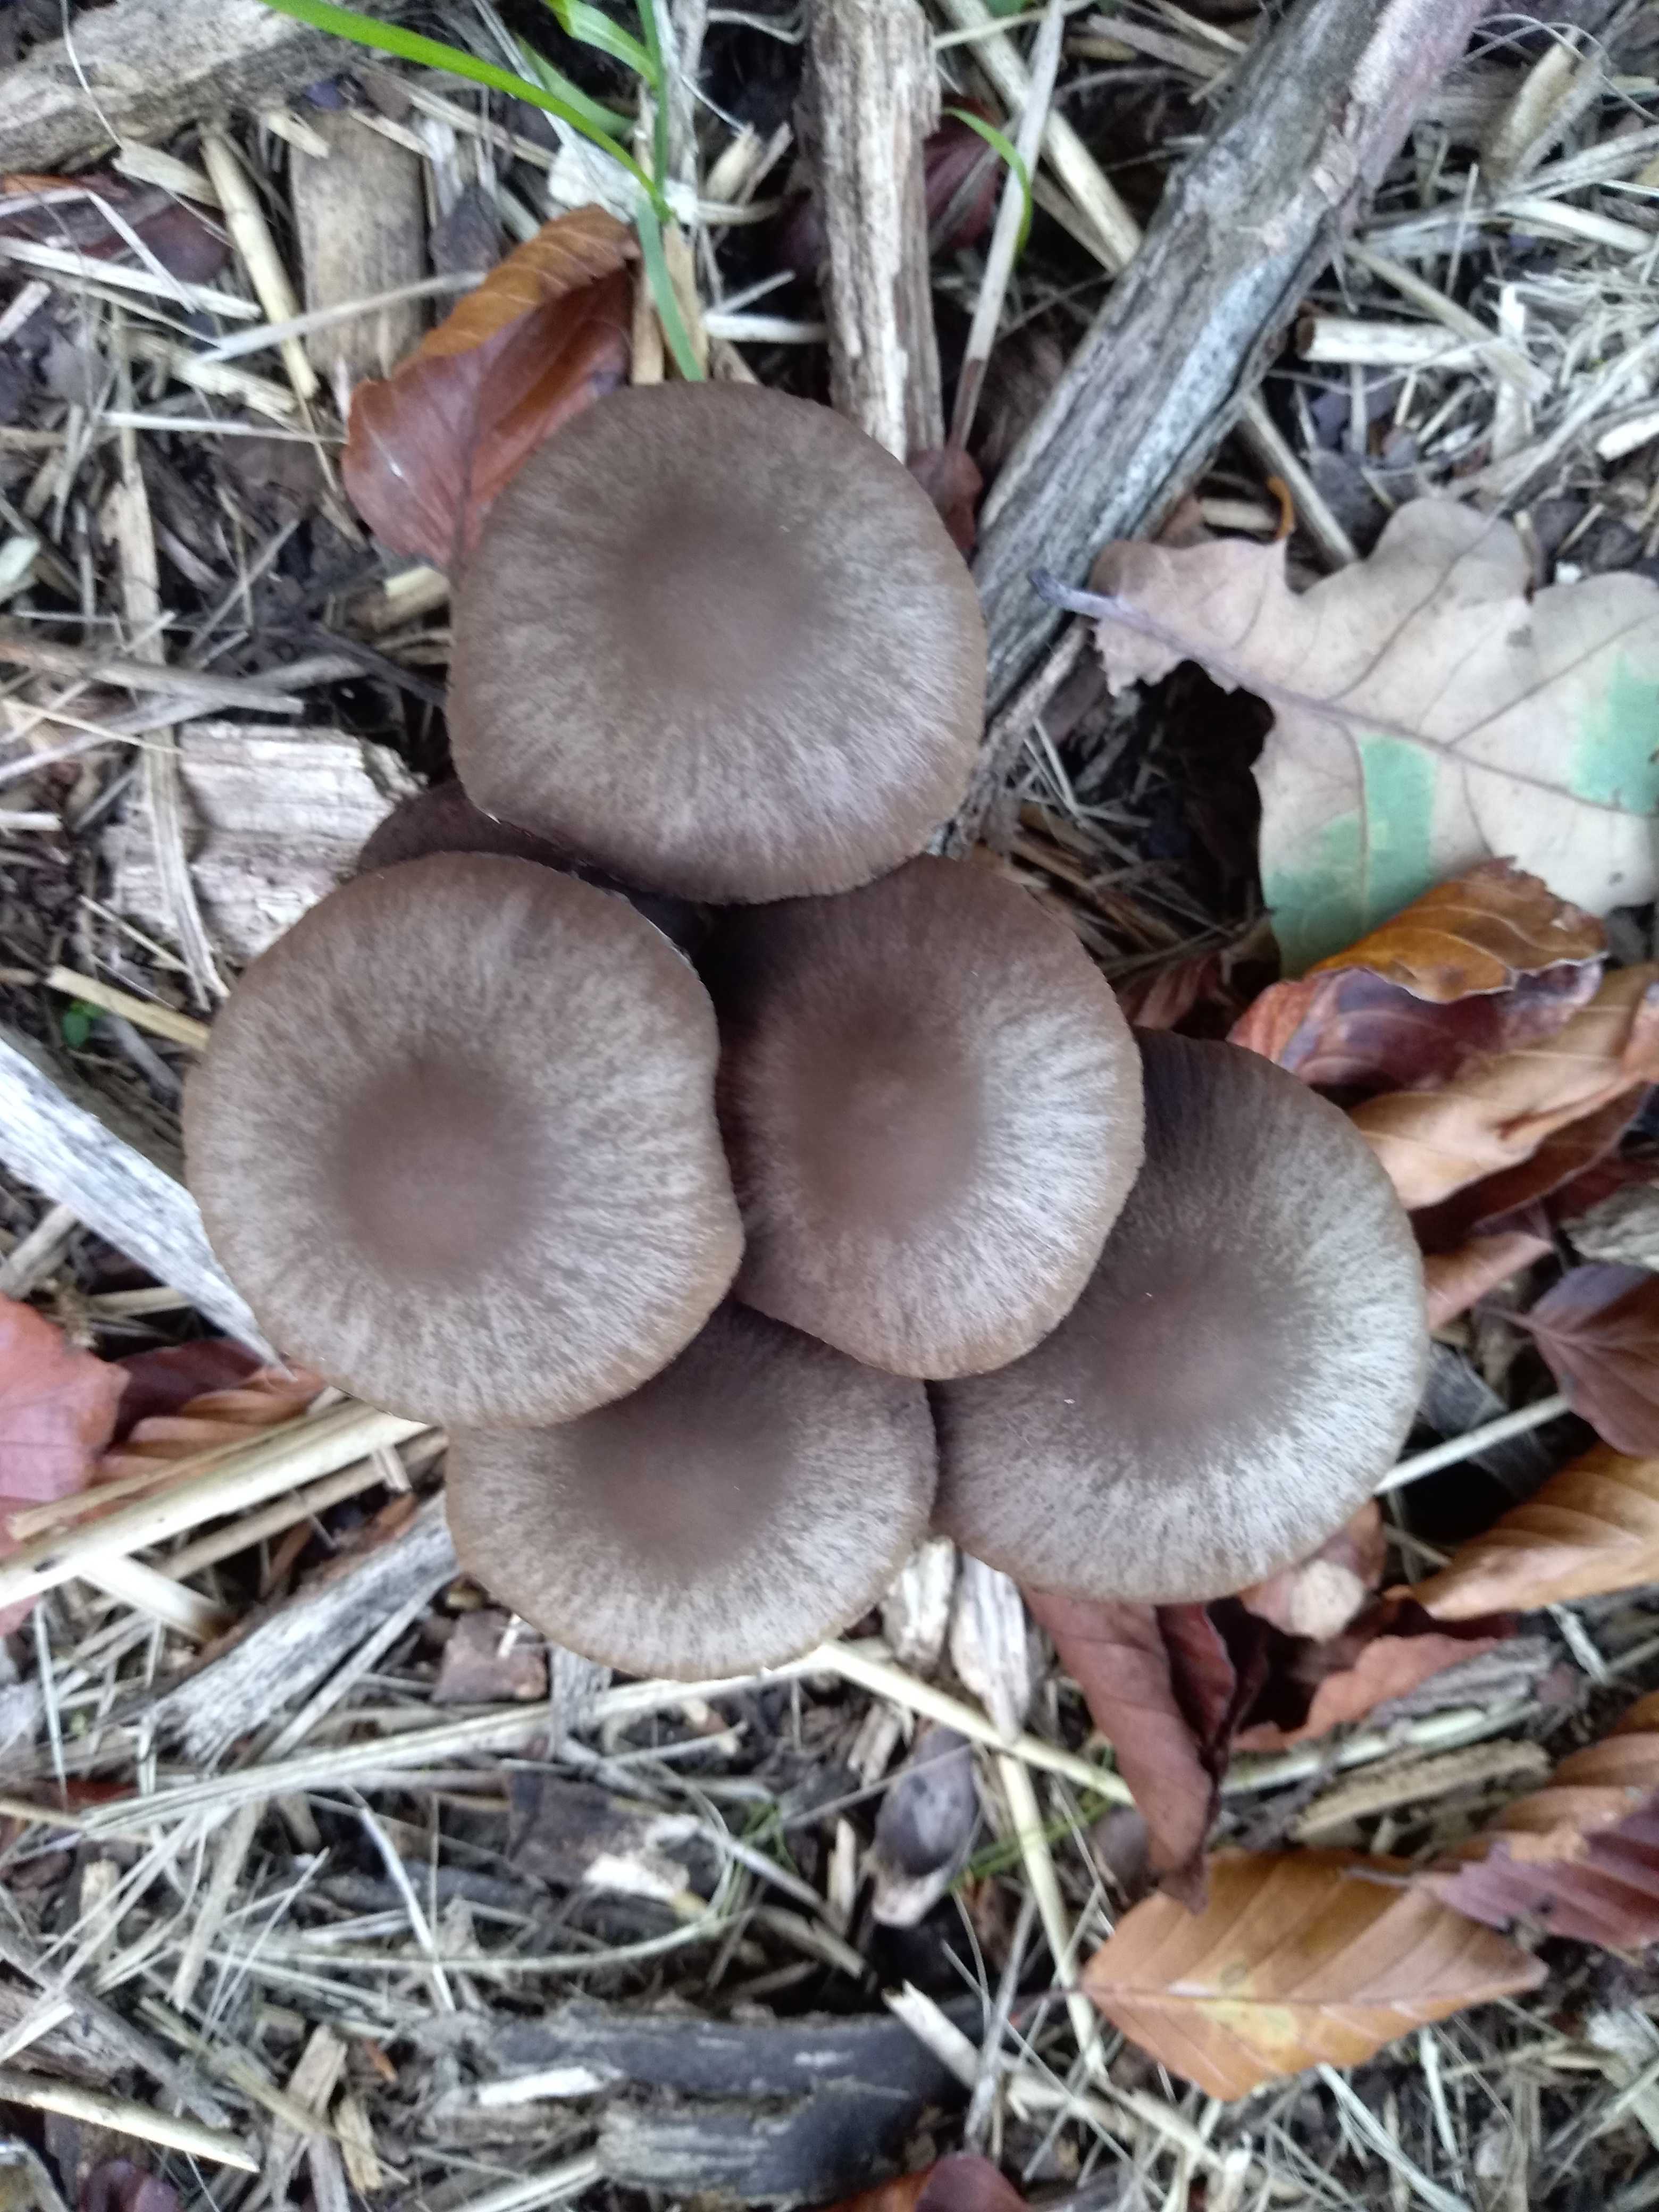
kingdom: Fungi
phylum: Basidiomycota
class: Agaricomycetes
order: Agaricales
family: Psathyrellaceae
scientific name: Psathyrellaceae
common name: mørkhatfamilien
